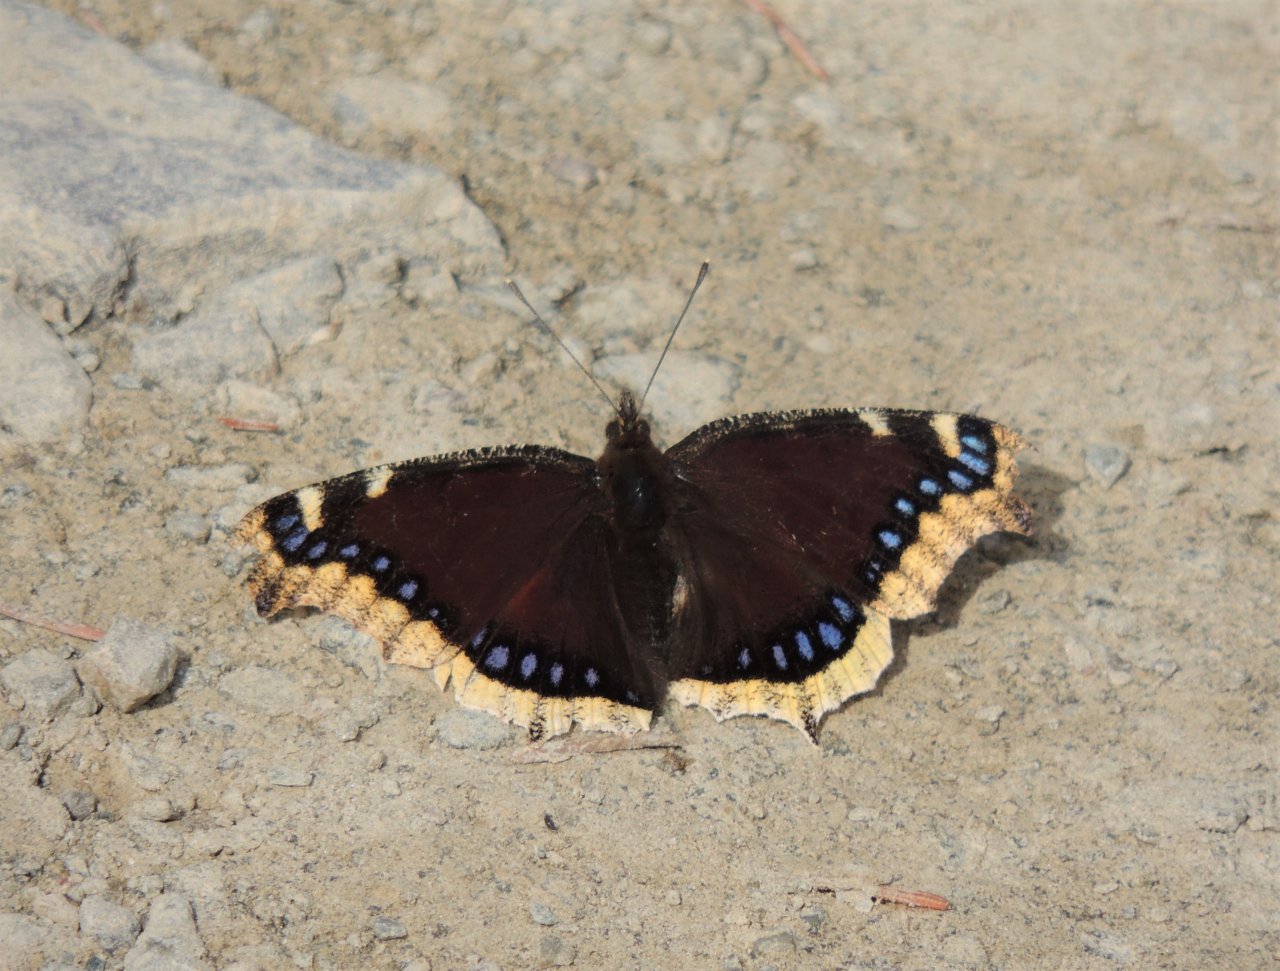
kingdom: Animalia
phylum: Arthropoda
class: Insecta
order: Lepidoptera
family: Nymphalidae
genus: Nymphalis
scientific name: Nymphalis antiopa
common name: Mourning Cloak
